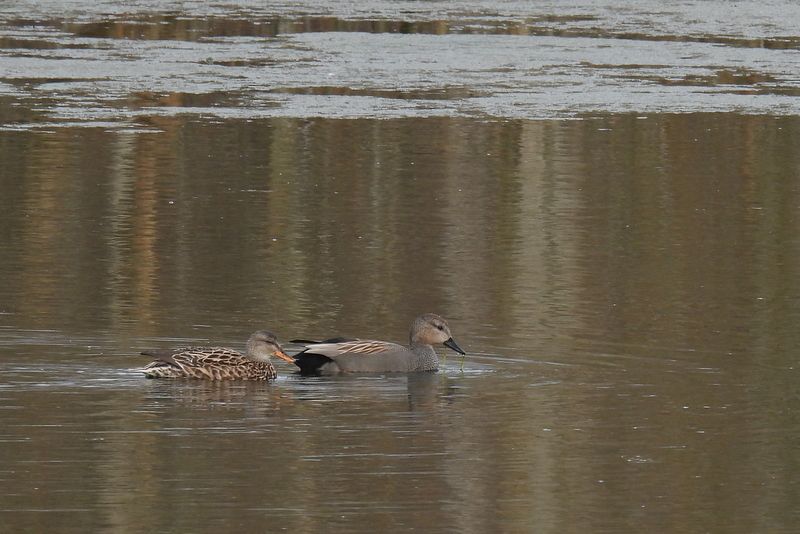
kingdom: Animalia
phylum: Chordata
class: Aves
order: Anseriformes
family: Anatidae
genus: Mareca
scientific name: Mareca strepera
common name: Gadwall
